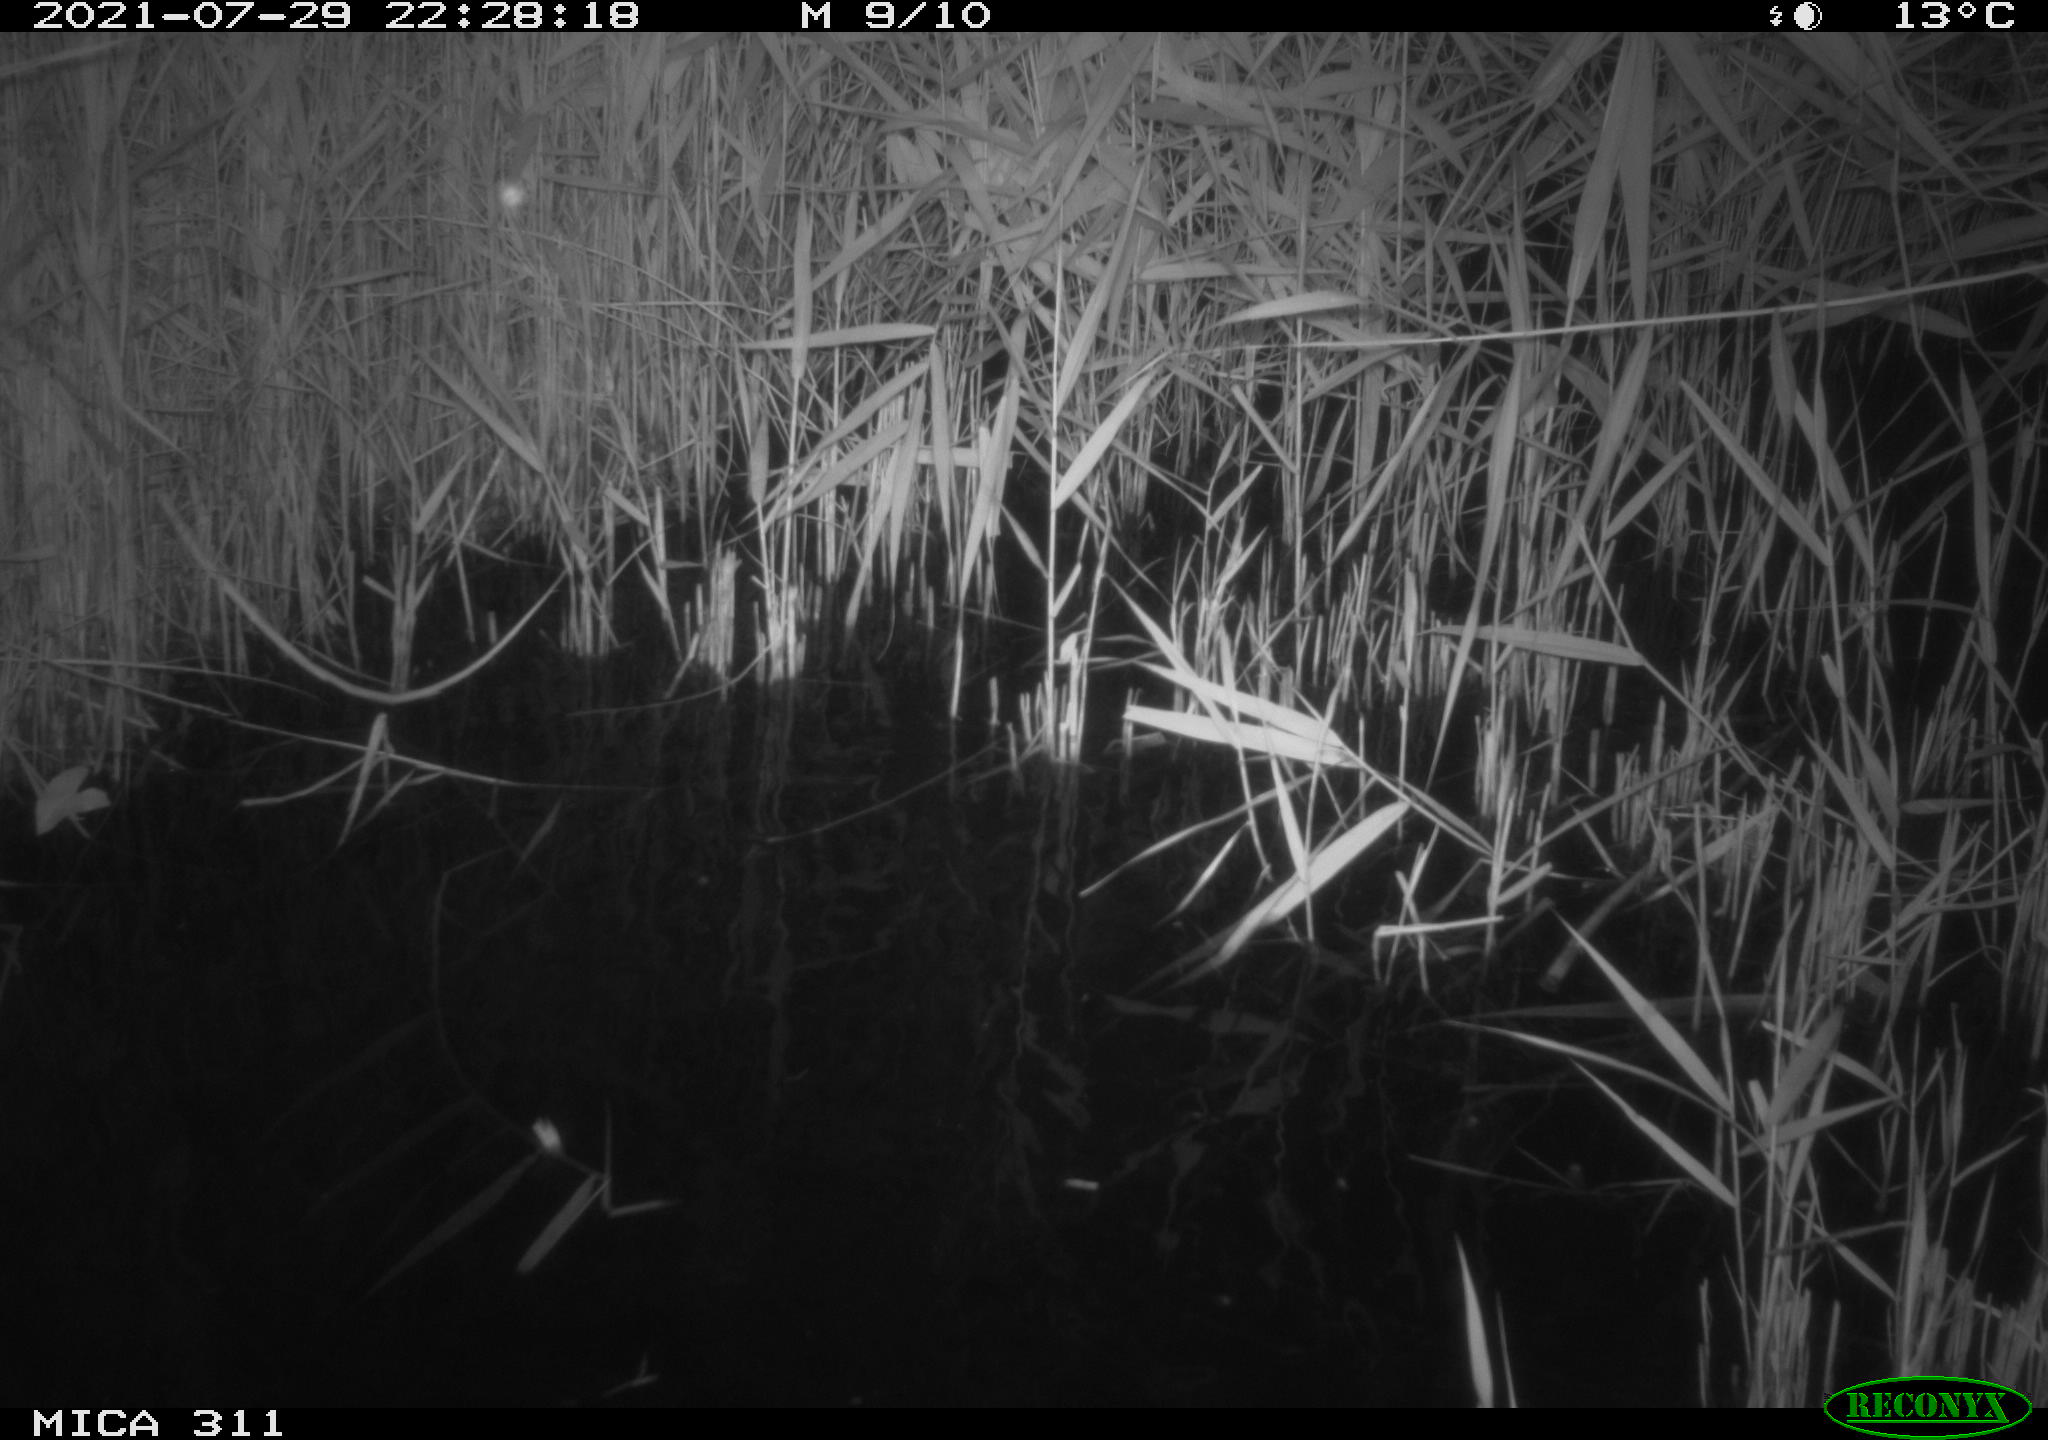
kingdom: Animalia
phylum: Chordata
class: Mammalia
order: Rodentia
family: Muridae
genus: Rattus
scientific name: Rattus norvegicus
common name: Brown rat
